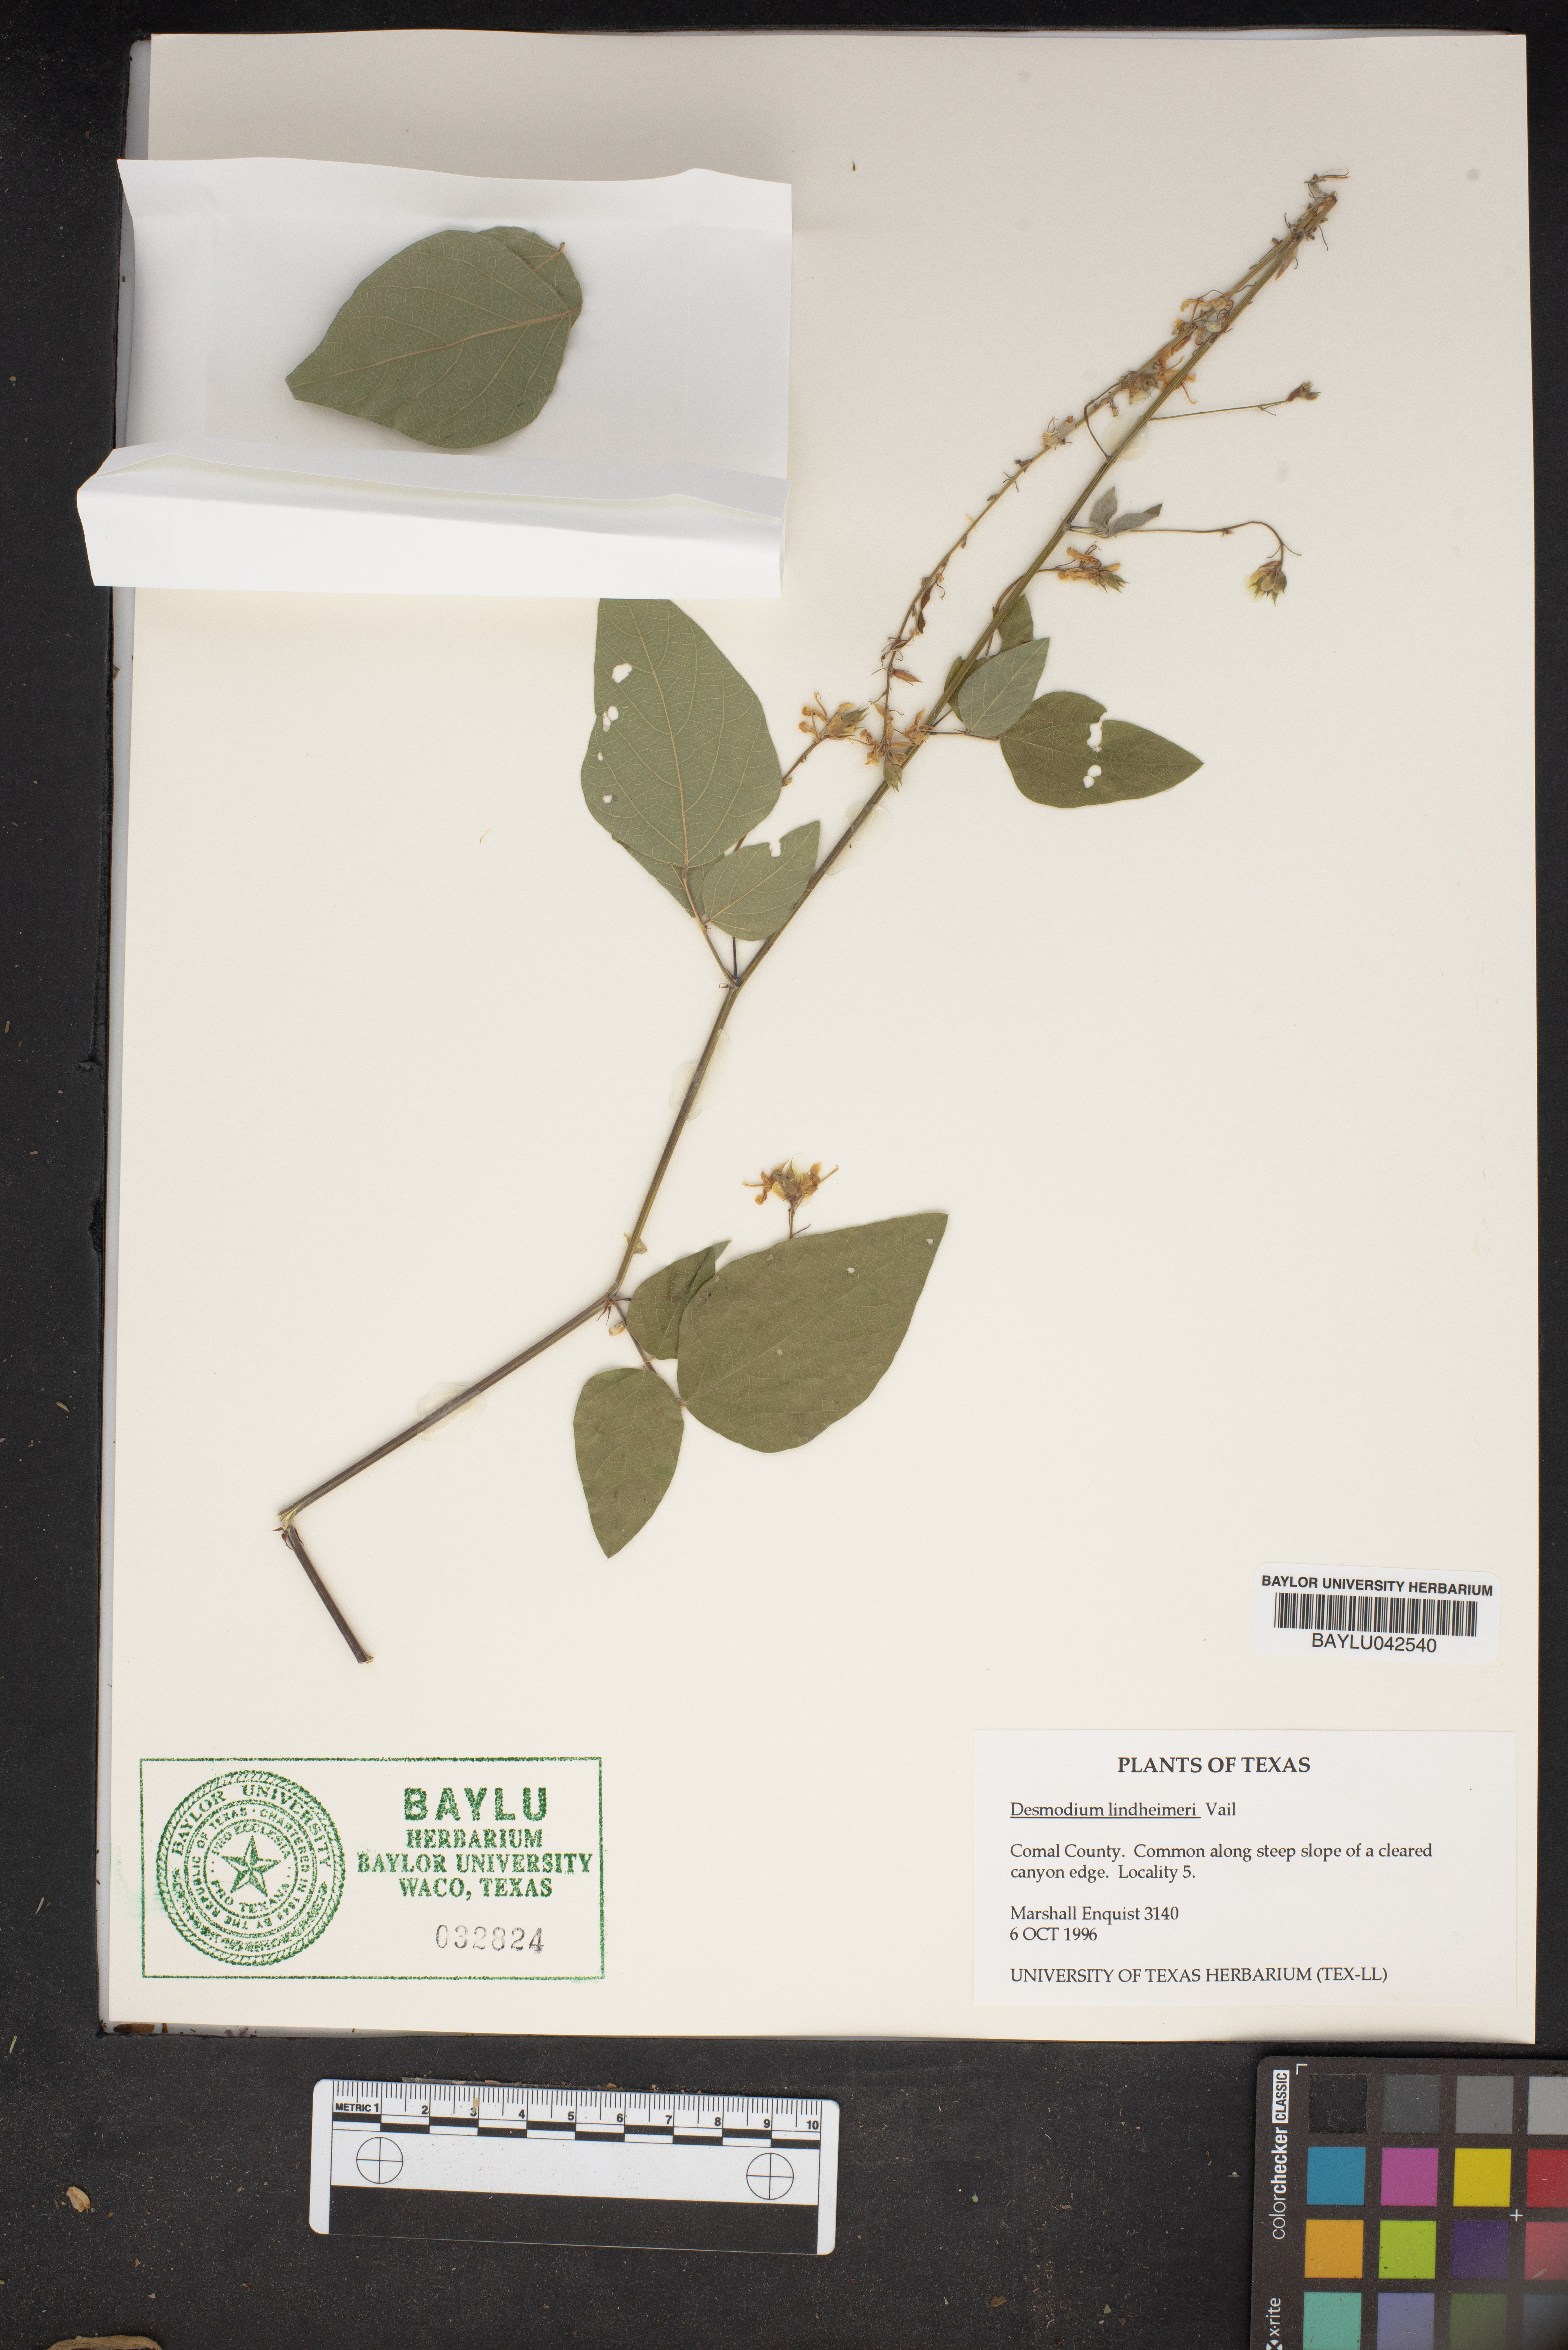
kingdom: Plantae
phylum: Tracheophyta
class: Magnoliopsida
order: Fabales
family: Fabaceae
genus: Desmodium
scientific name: Desmodium lindheimeri
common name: Lindheimer's tick-trefoil
